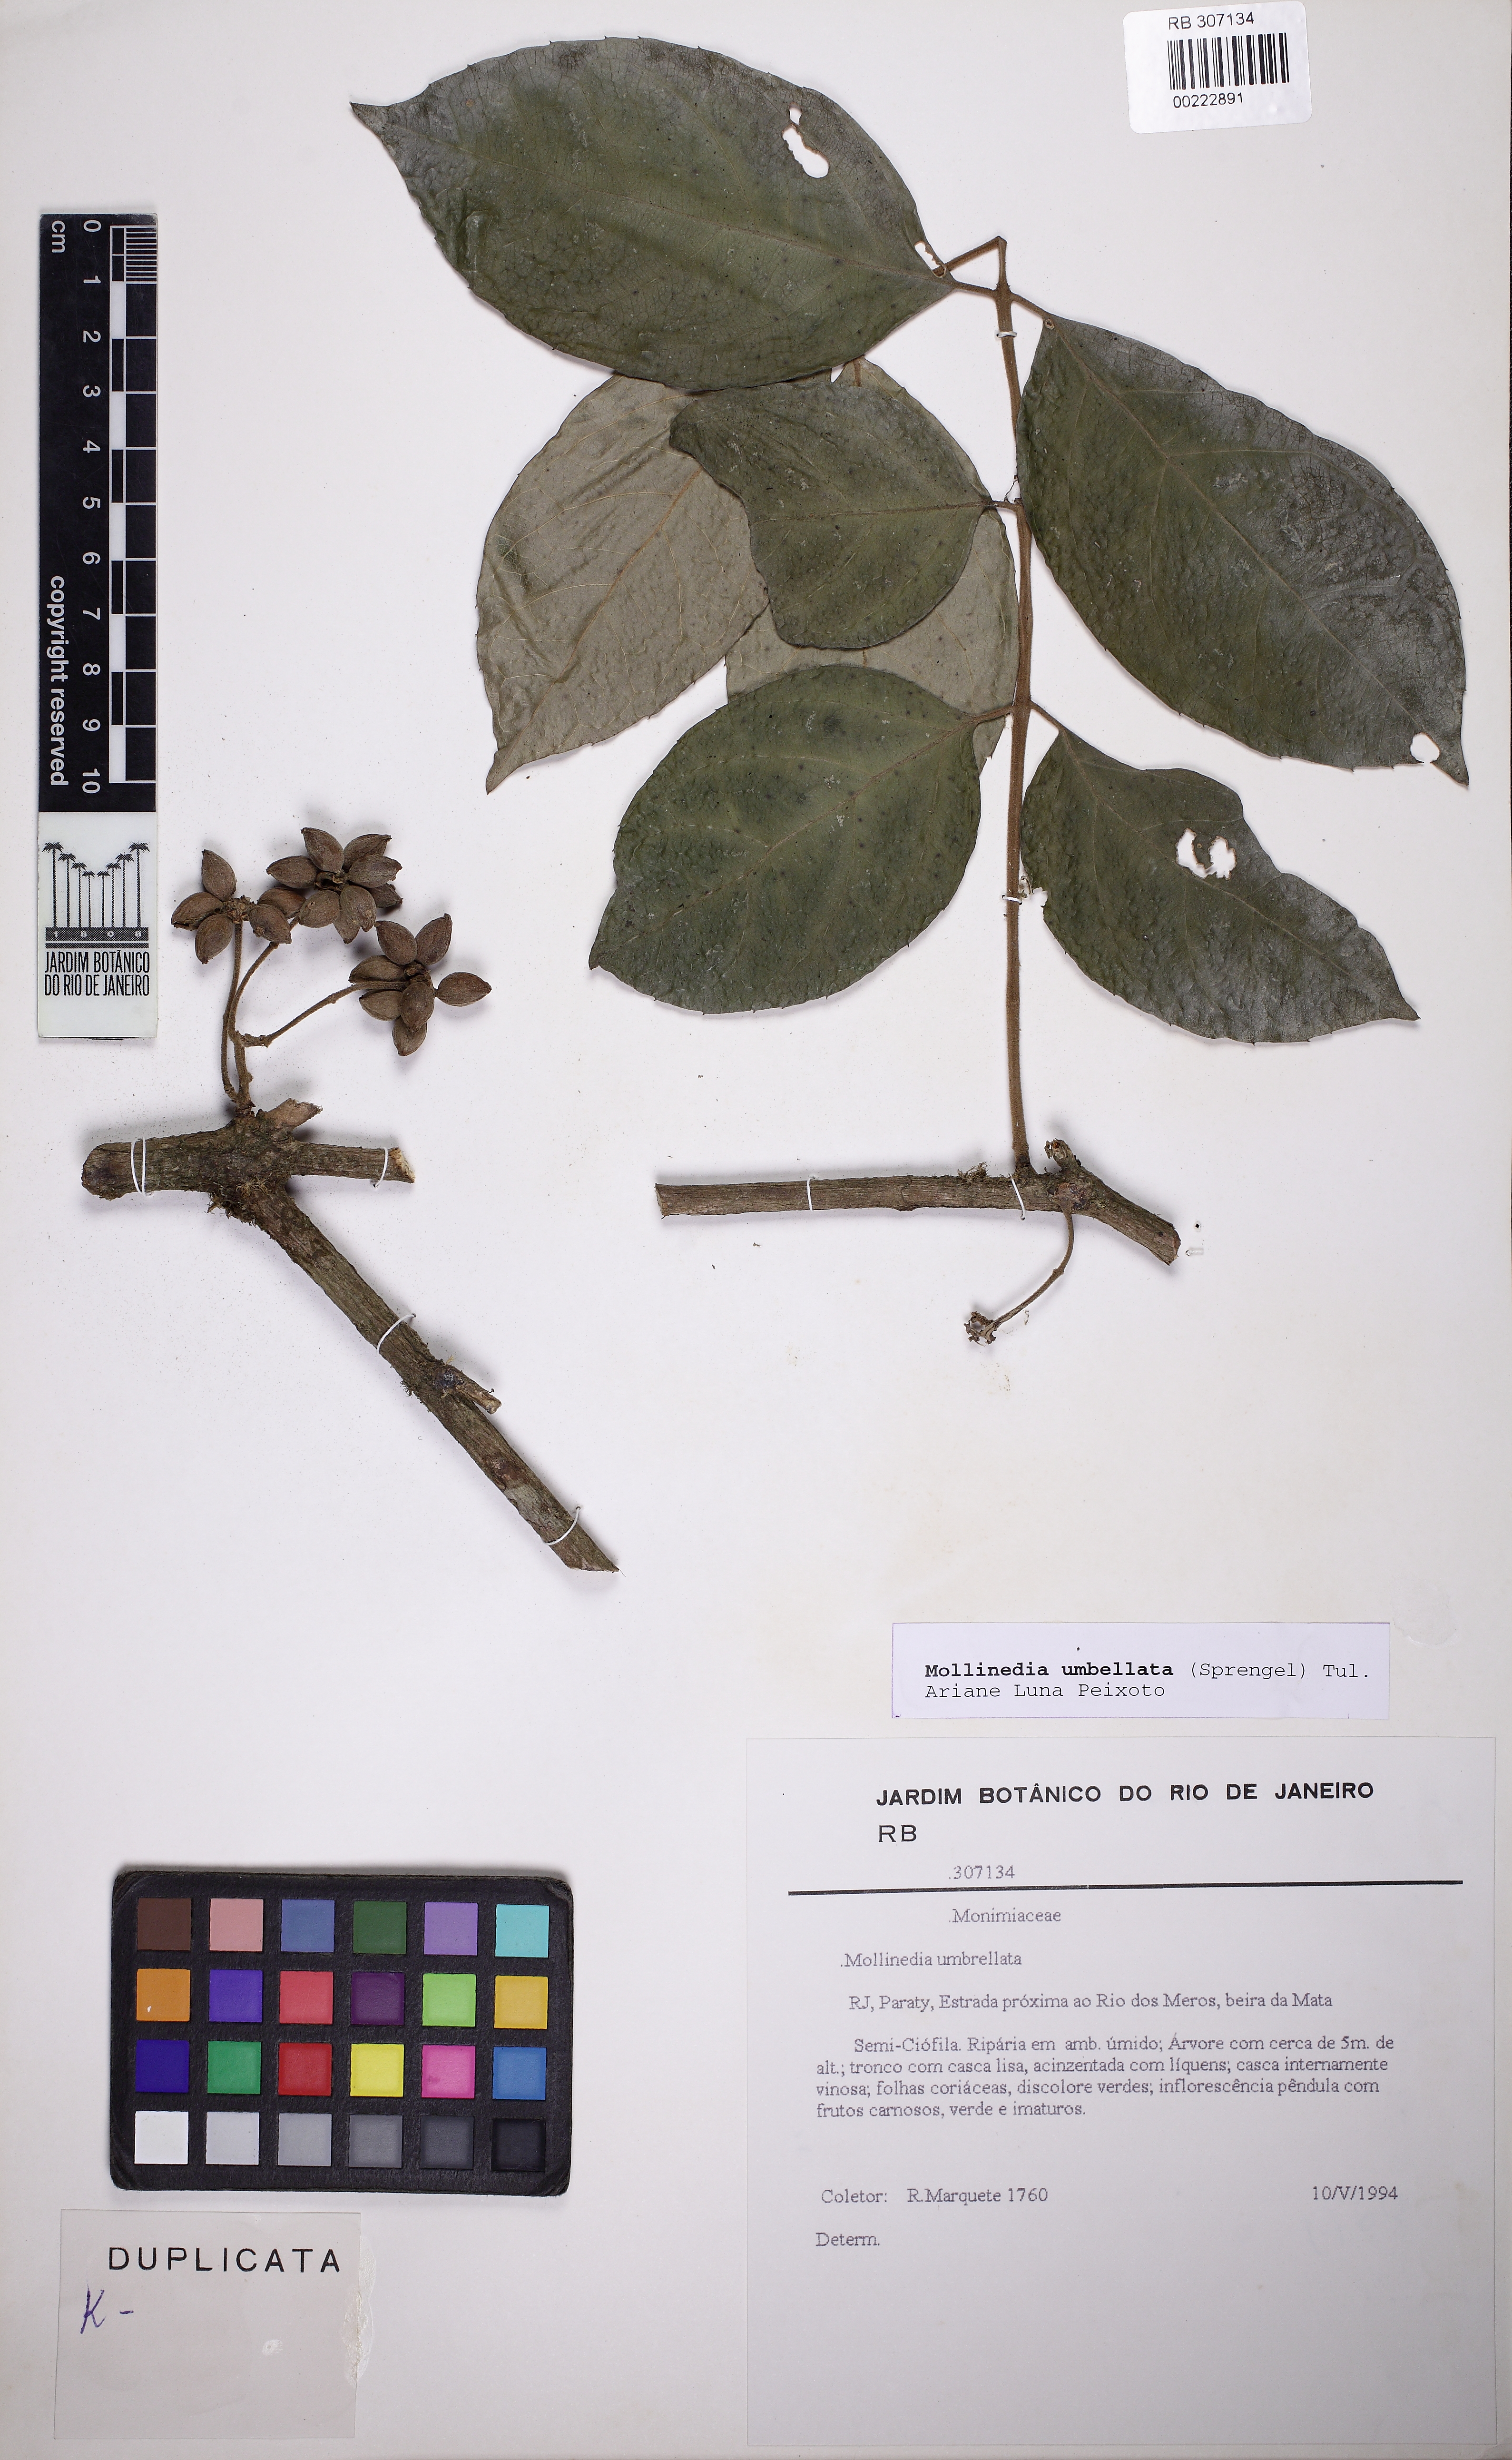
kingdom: Plantae
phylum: Tracheophyta
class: Magnoliopsida
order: Laurales
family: Monimiaceae
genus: Mollinedia
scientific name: Mollinedia umbellata
